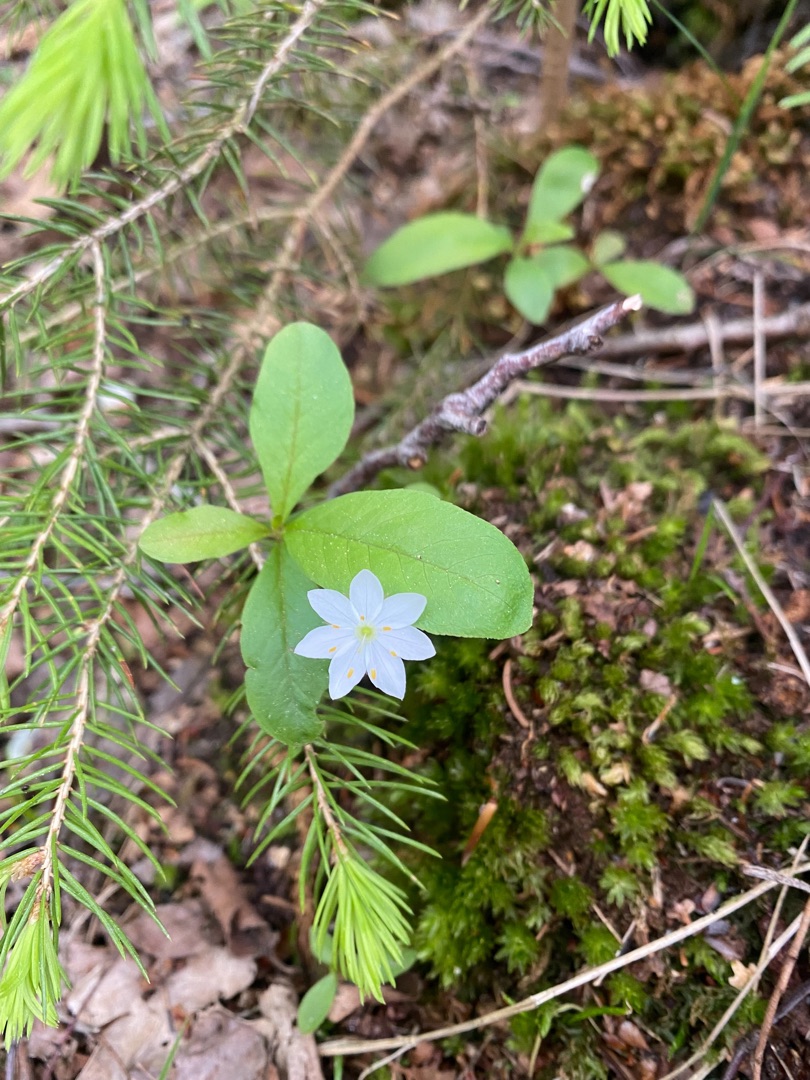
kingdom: Plantae
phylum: Tracheophyta
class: Magnoliopsida
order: Ericales
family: Primulaceae
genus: Lysimachia
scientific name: Lysimachia europaea
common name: Skovstjerne
